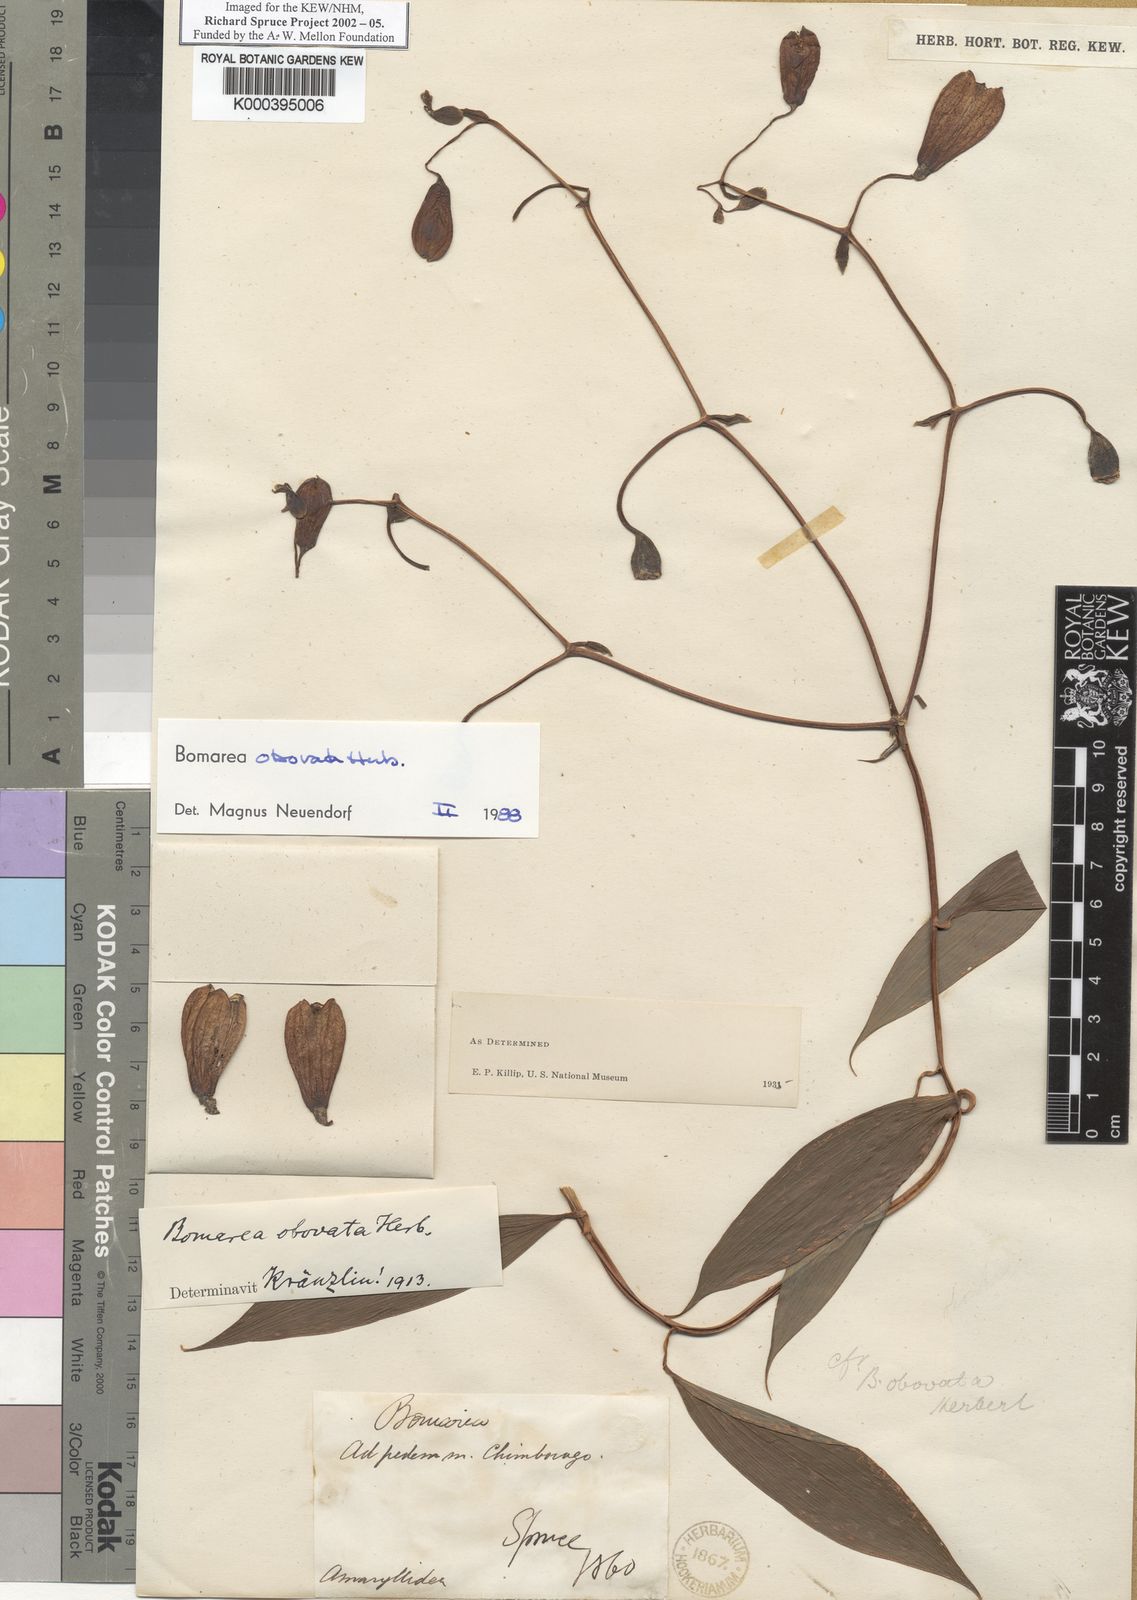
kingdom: Plantae
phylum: Tracheophyta
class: Liliopsida
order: Liliales
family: Alstroemeriaceae
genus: Bomarea
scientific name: Bomarea obovata
